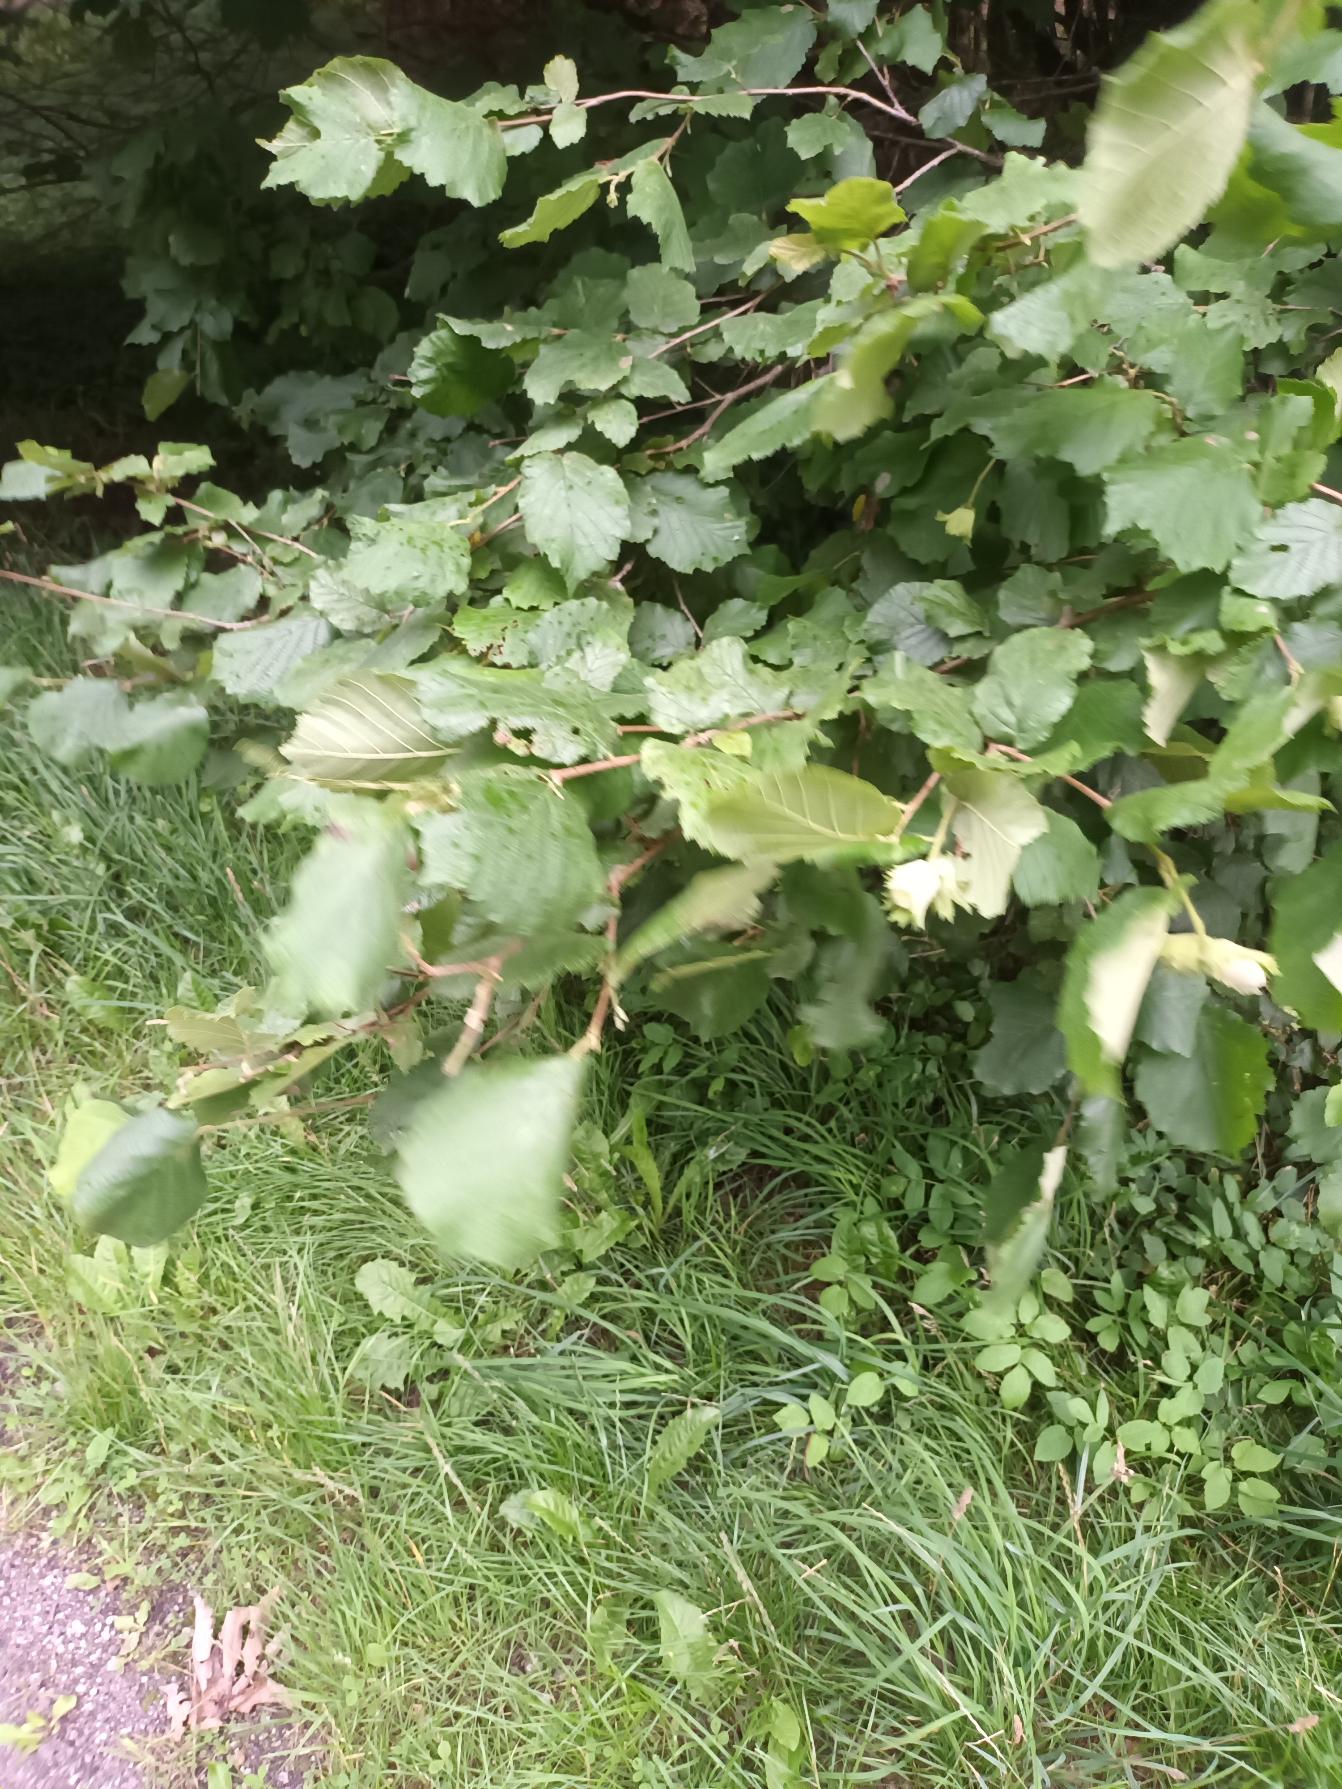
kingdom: Plantae
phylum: Tracheophyta
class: Magnoliopsida
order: Fagales
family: Betulaceae
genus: Corylus
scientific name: Corylus avellana
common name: Hassel
